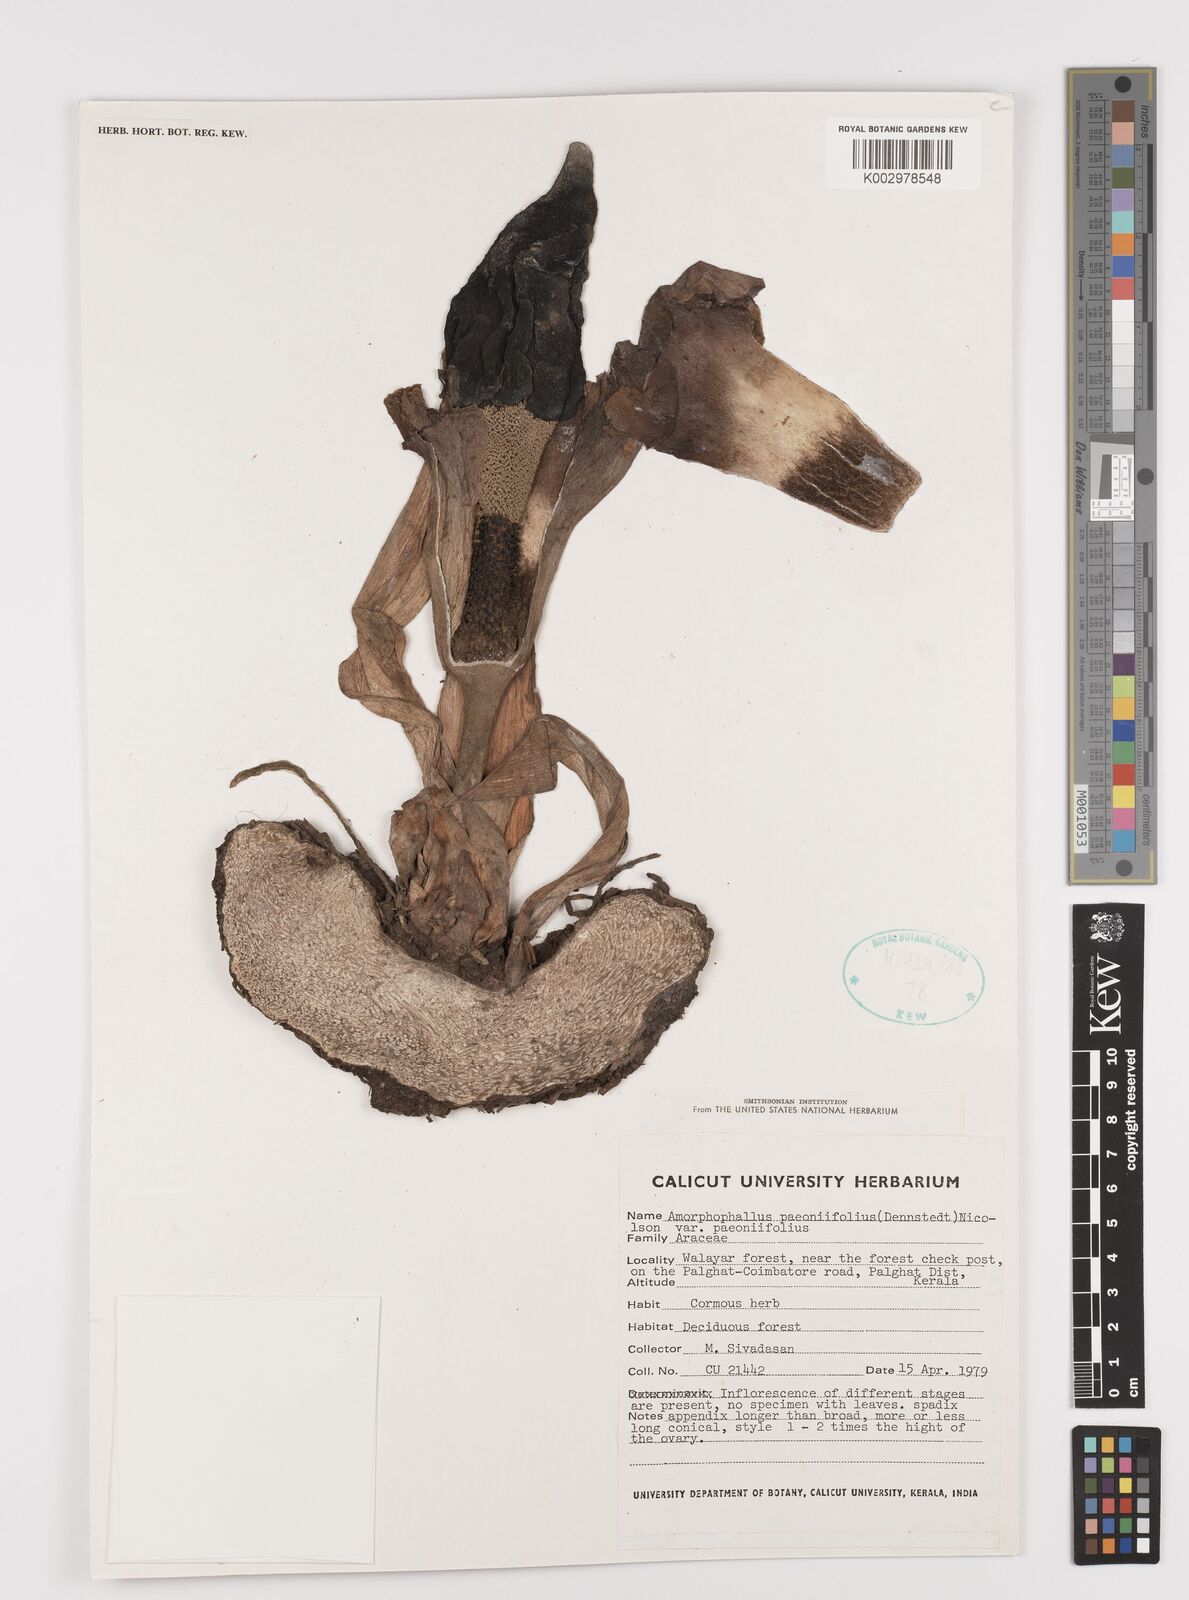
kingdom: Plantae
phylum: Tracheophyta
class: Liliopsida
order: Alismatales
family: Araceae
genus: Amorphophallus
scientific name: Amorphophallus paeoniifolius
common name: Telinga-potato
